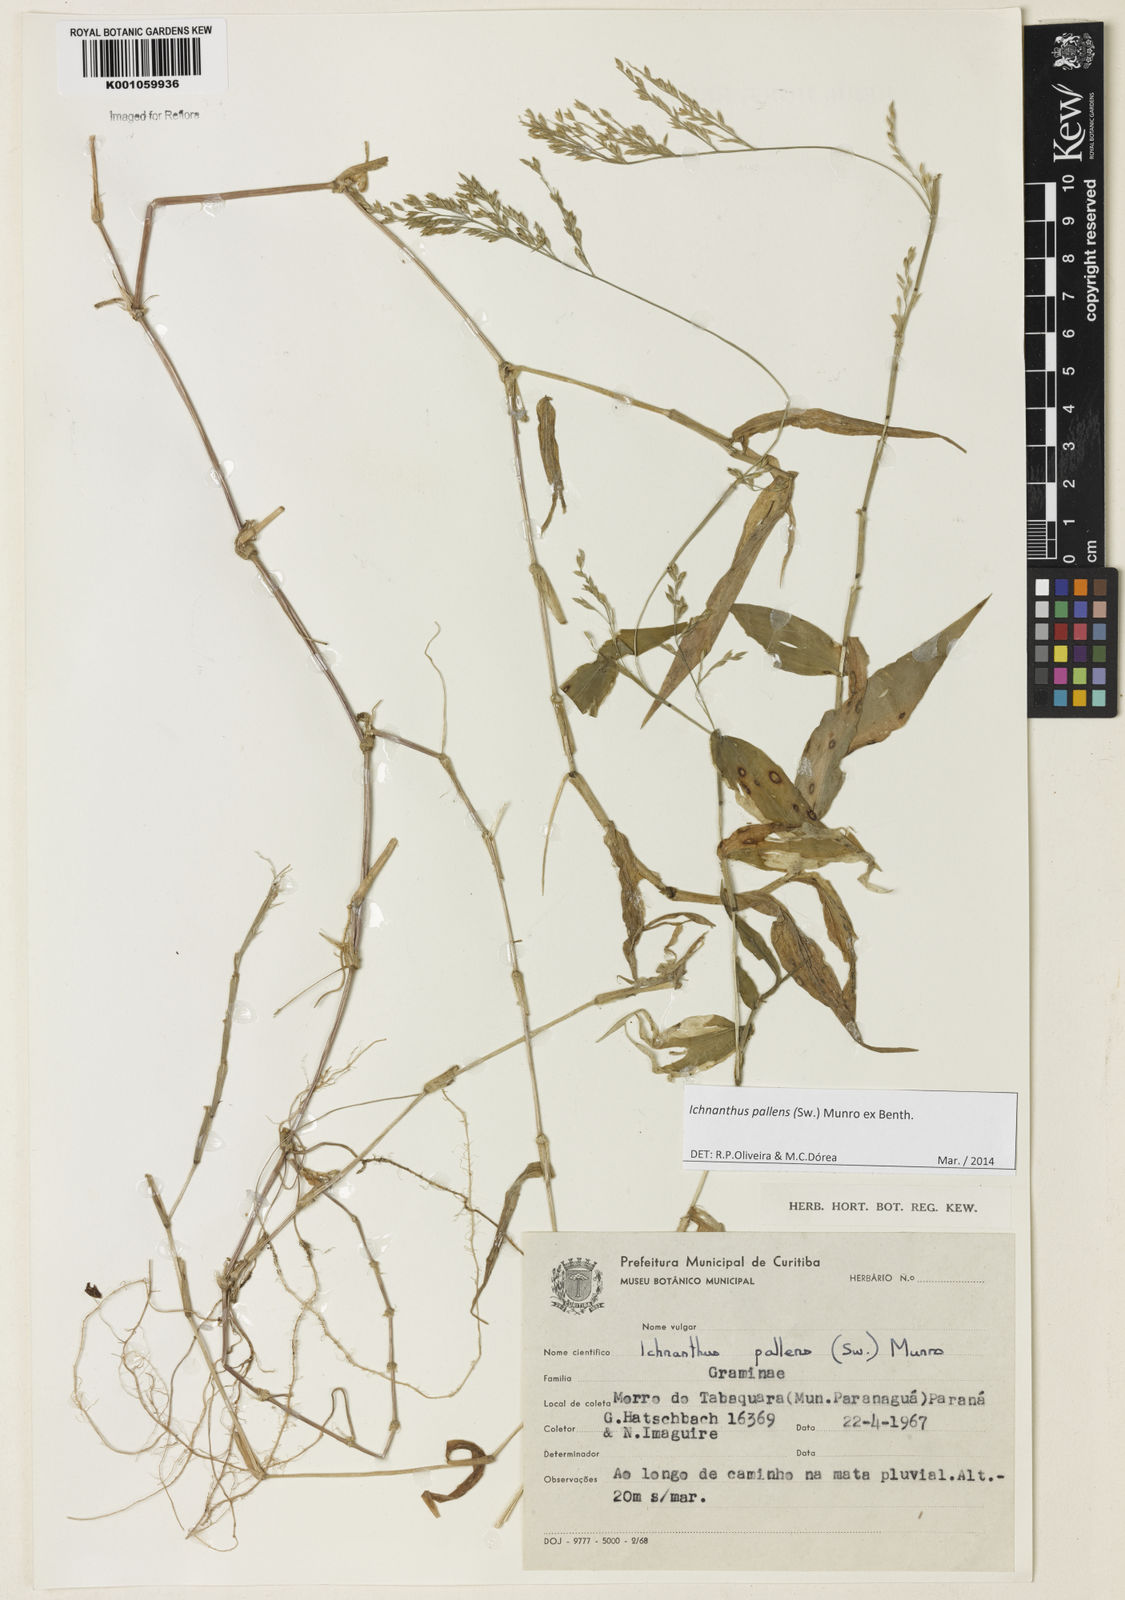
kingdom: Plantae
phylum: Tracheophyta
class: Liliopsida
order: Poales
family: Poaceae
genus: Ichnanthus
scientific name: Ichnanthus pallens
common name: Water grass
